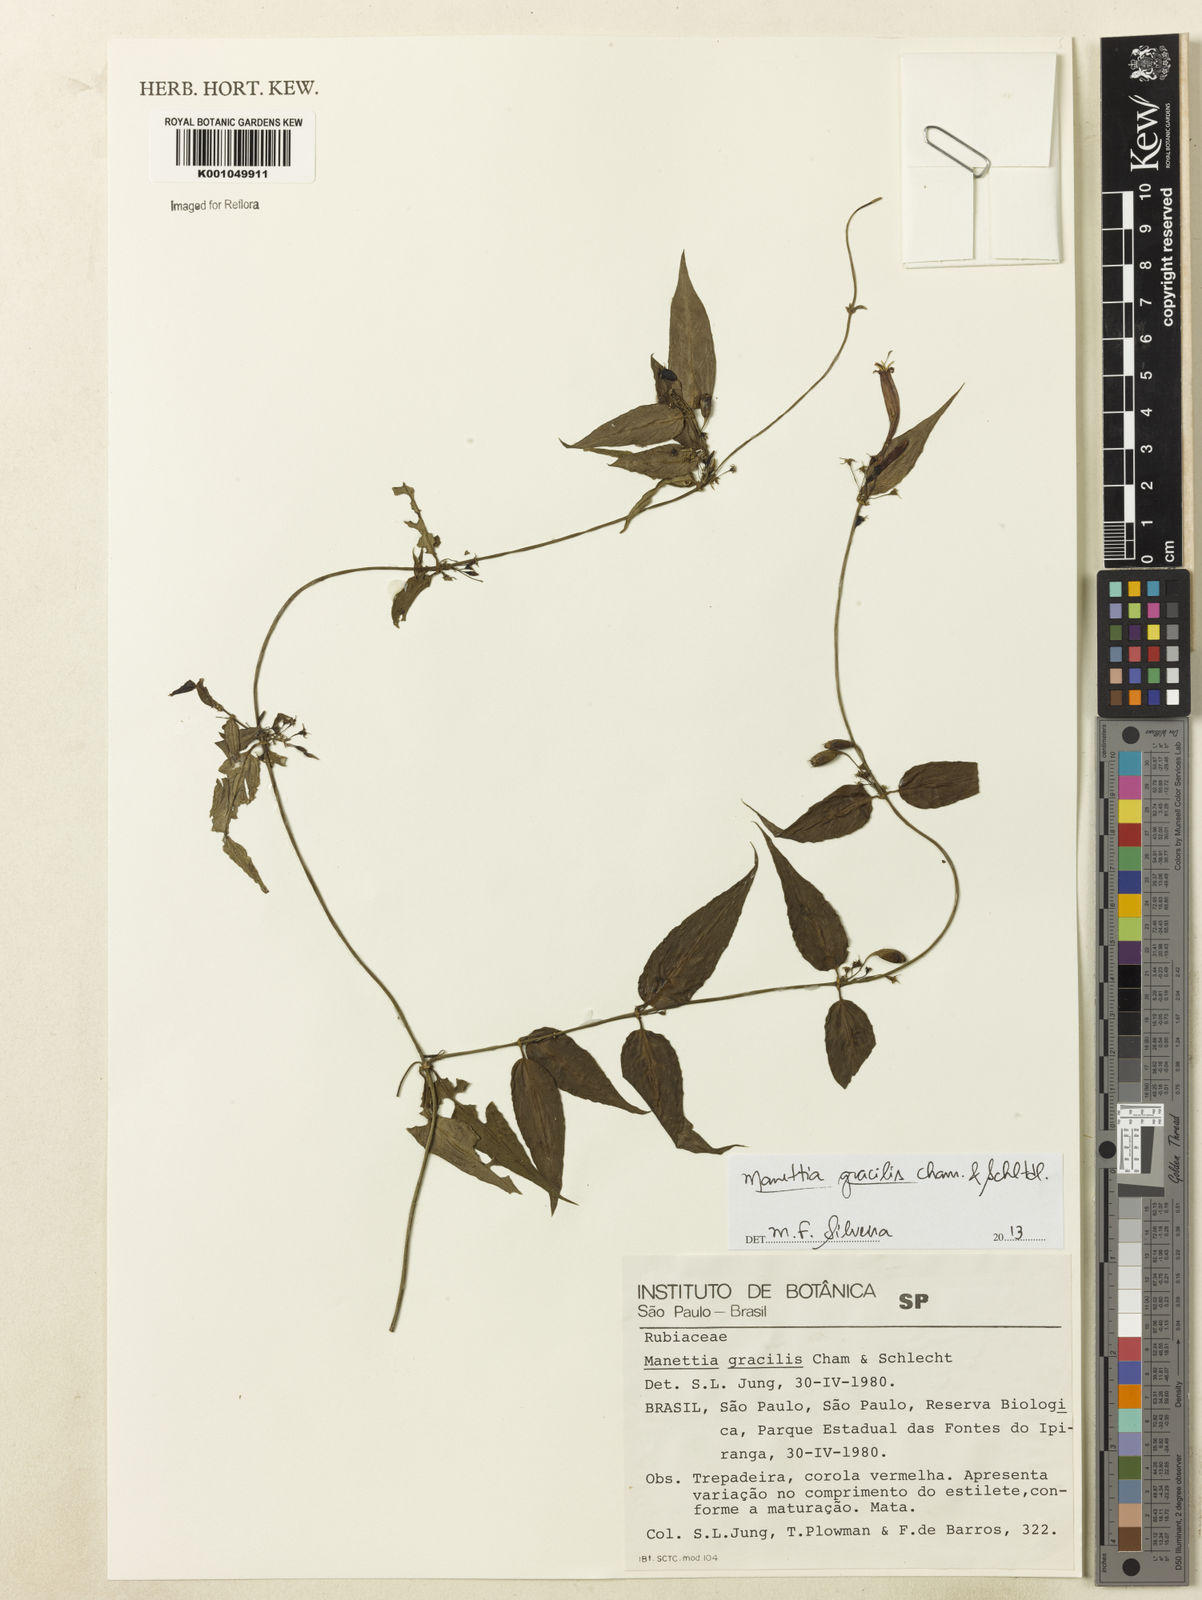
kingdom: Plantae
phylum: Tracheophyta
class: Magnoliopsida
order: Gentianales
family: Rubiaceae
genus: Manettia
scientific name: Manettia gracilis
